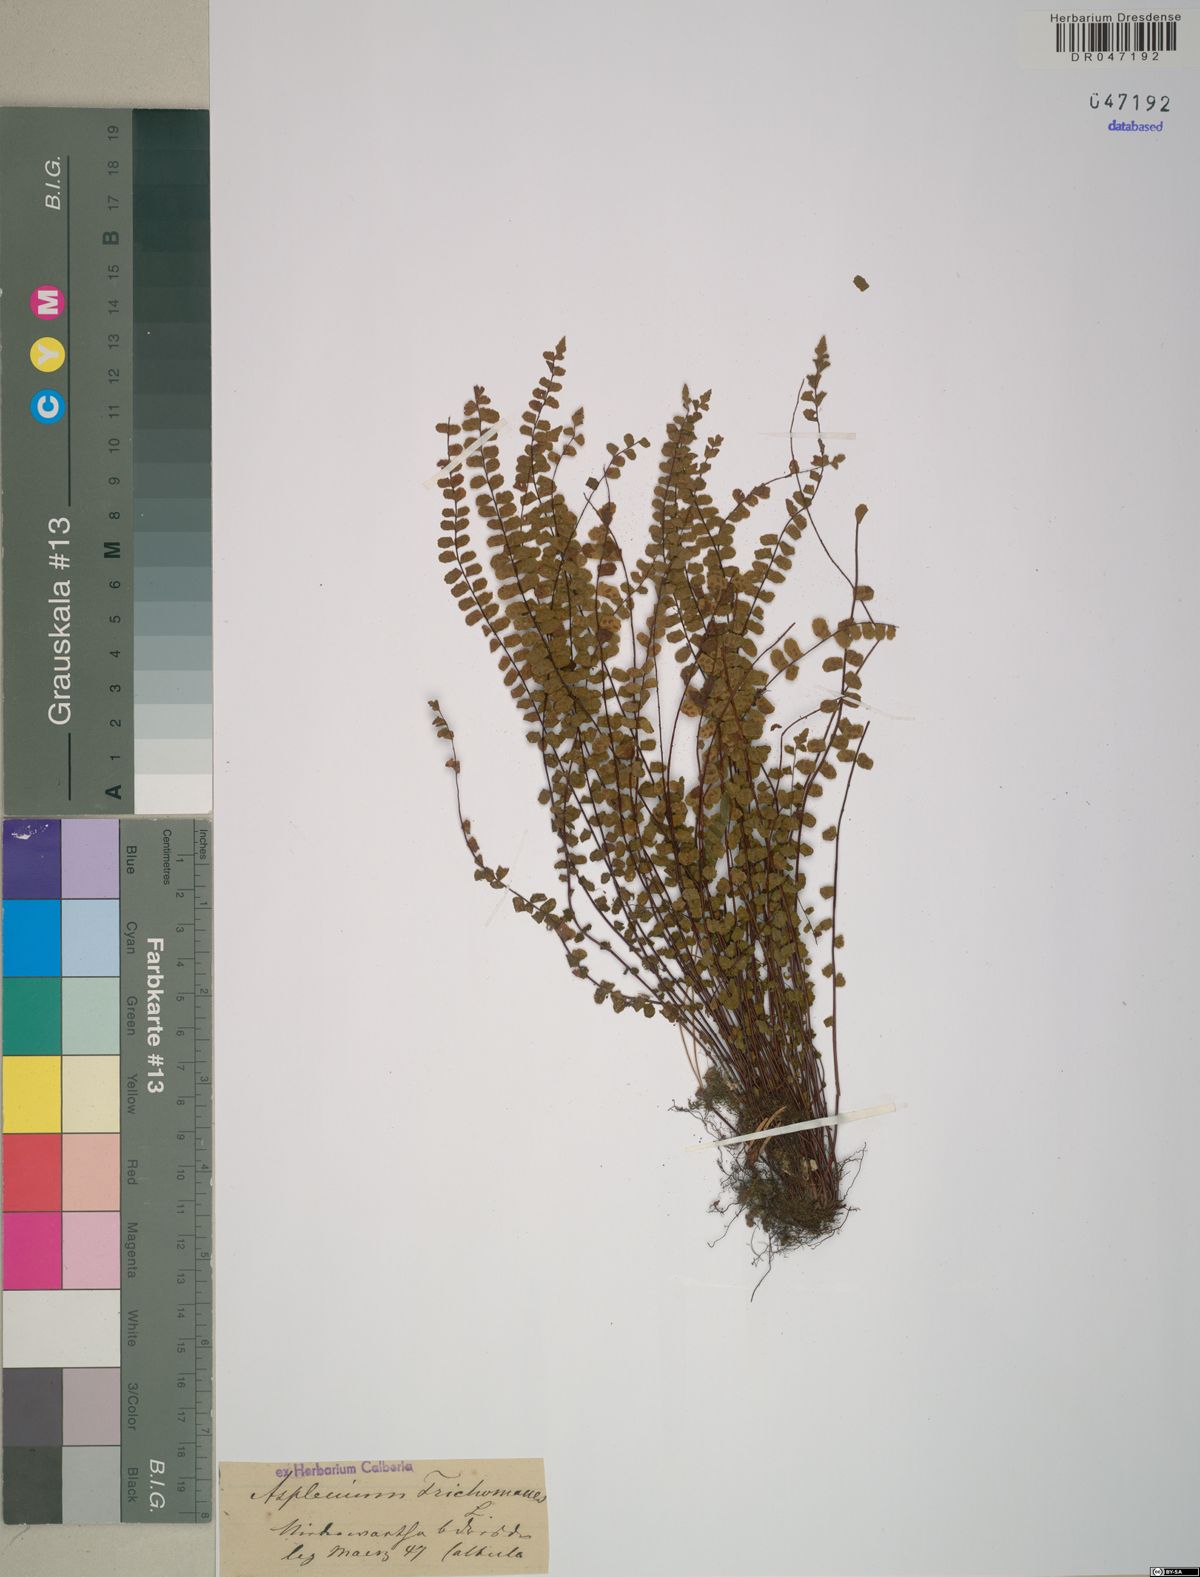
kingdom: Plantae
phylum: Tracheophyta
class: Polypodiopsida
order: Polypodiales
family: Aspleniaceae
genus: Asplenium
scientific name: Asplenium trichomanes
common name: Maidenhair spleenwort
